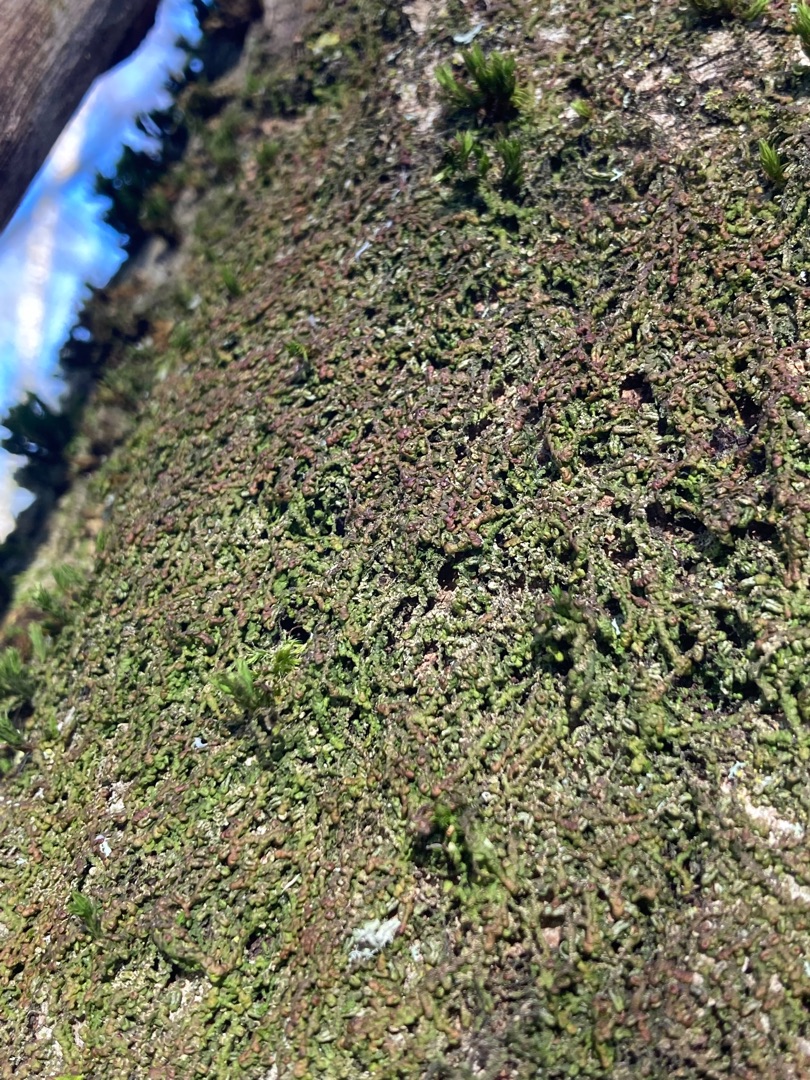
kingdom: Plantae
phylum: Marchantiophyta
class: Jungermanniopsida
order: Porellales
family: Frullaniaceae
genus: Frullania
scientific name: Frullania dilatata
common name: Mat bronzemos
